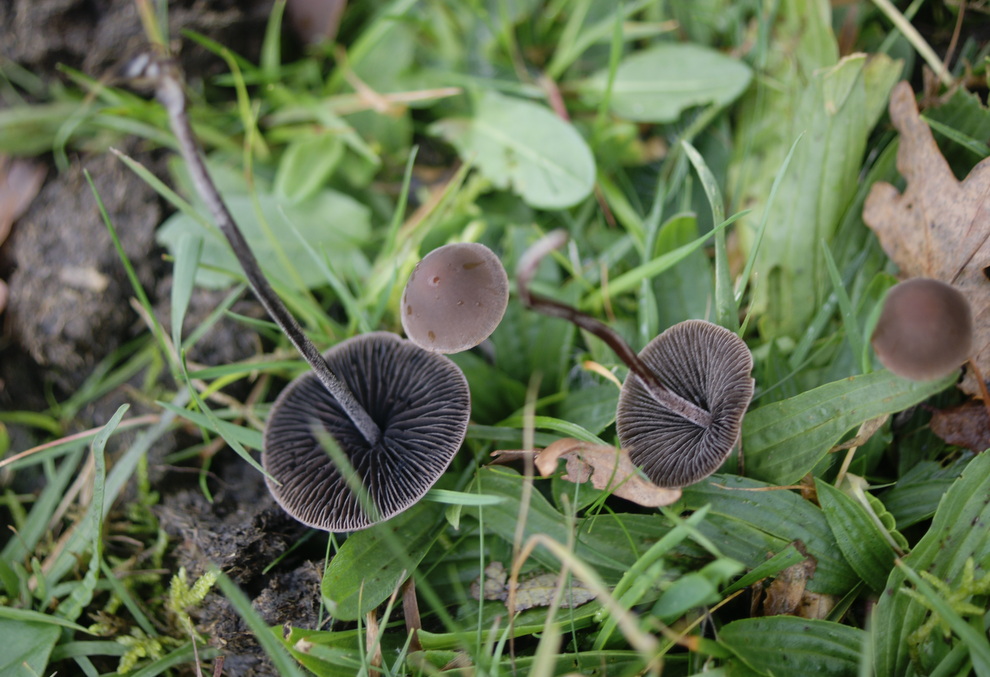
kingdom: Fungi
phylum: Basidiomycota
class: Agaricomycetes
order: Agaricales
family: Bolbitiaceae
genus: Panaeolus
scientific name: Panaeolus acuminatus
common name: høj glanshat
